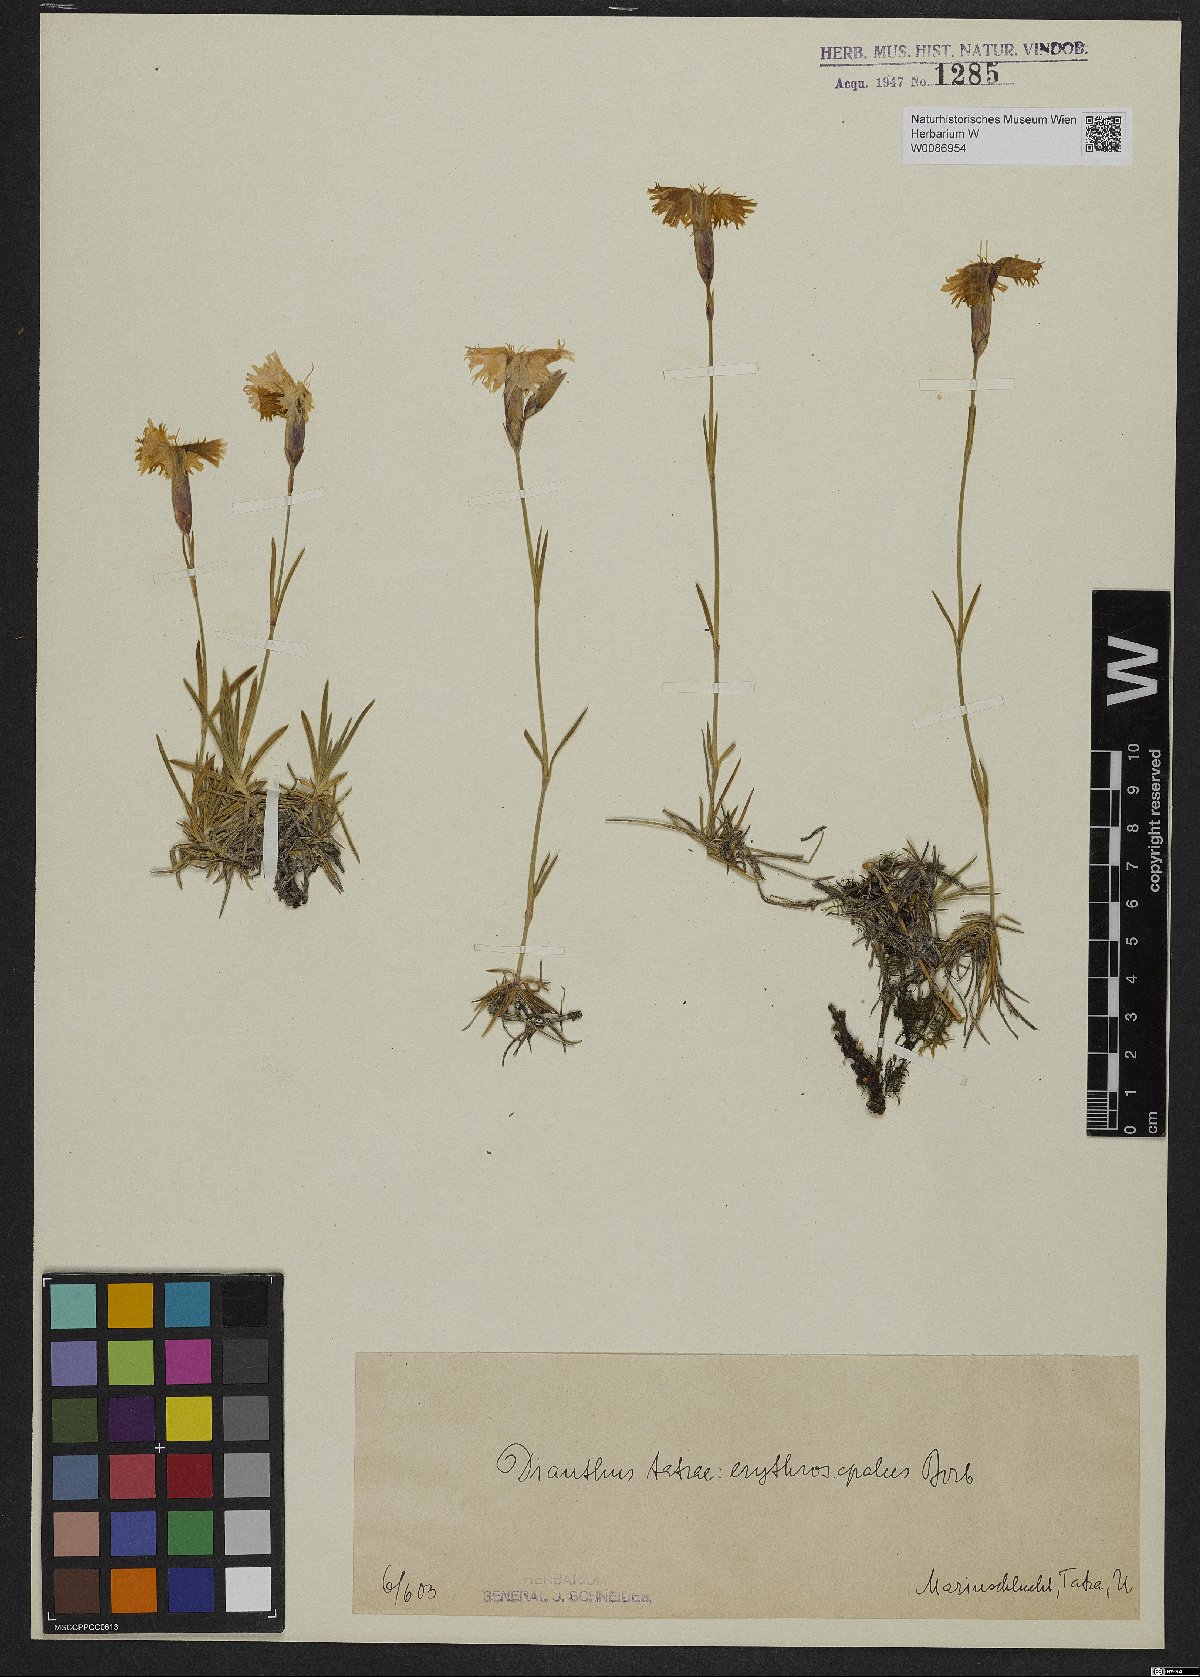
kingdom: Plantae
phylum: Tracheophyta
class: Magnoliopsida
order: Caryophyllales
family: Caryophyllaceae
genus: Dianthus
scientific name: Dianthus tatrae
